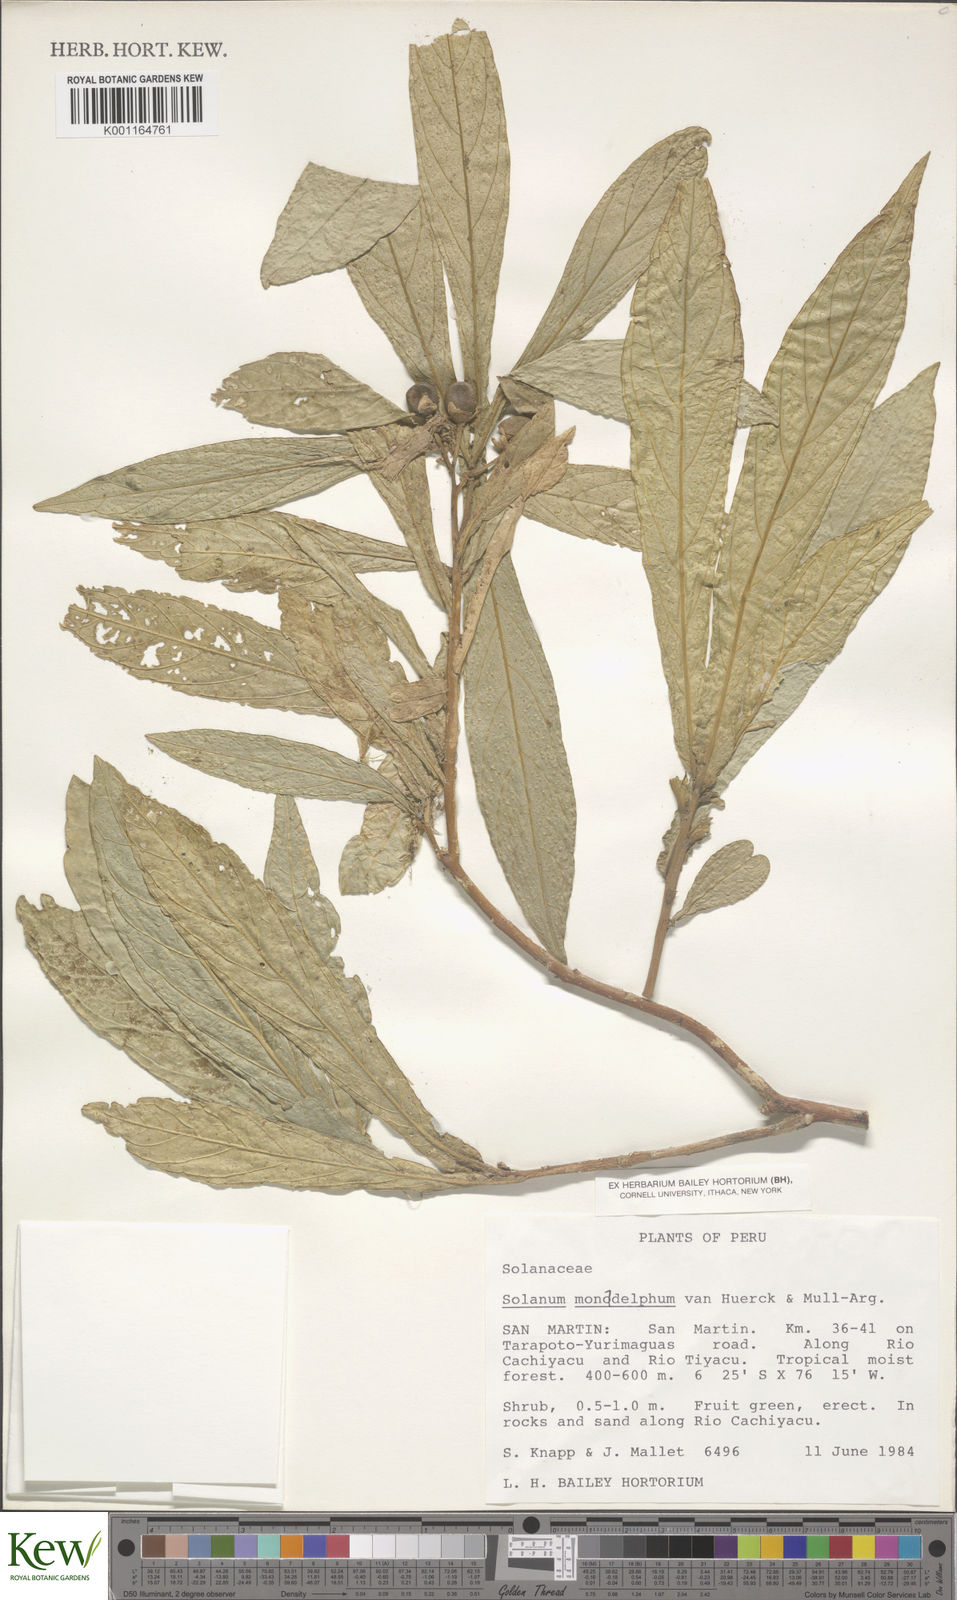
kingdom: Plantae
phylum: Tracheophyta
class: Magnoliopsida
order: Solanales
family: Solanaceae
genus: Solanum
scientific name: Solanum monadelphum
